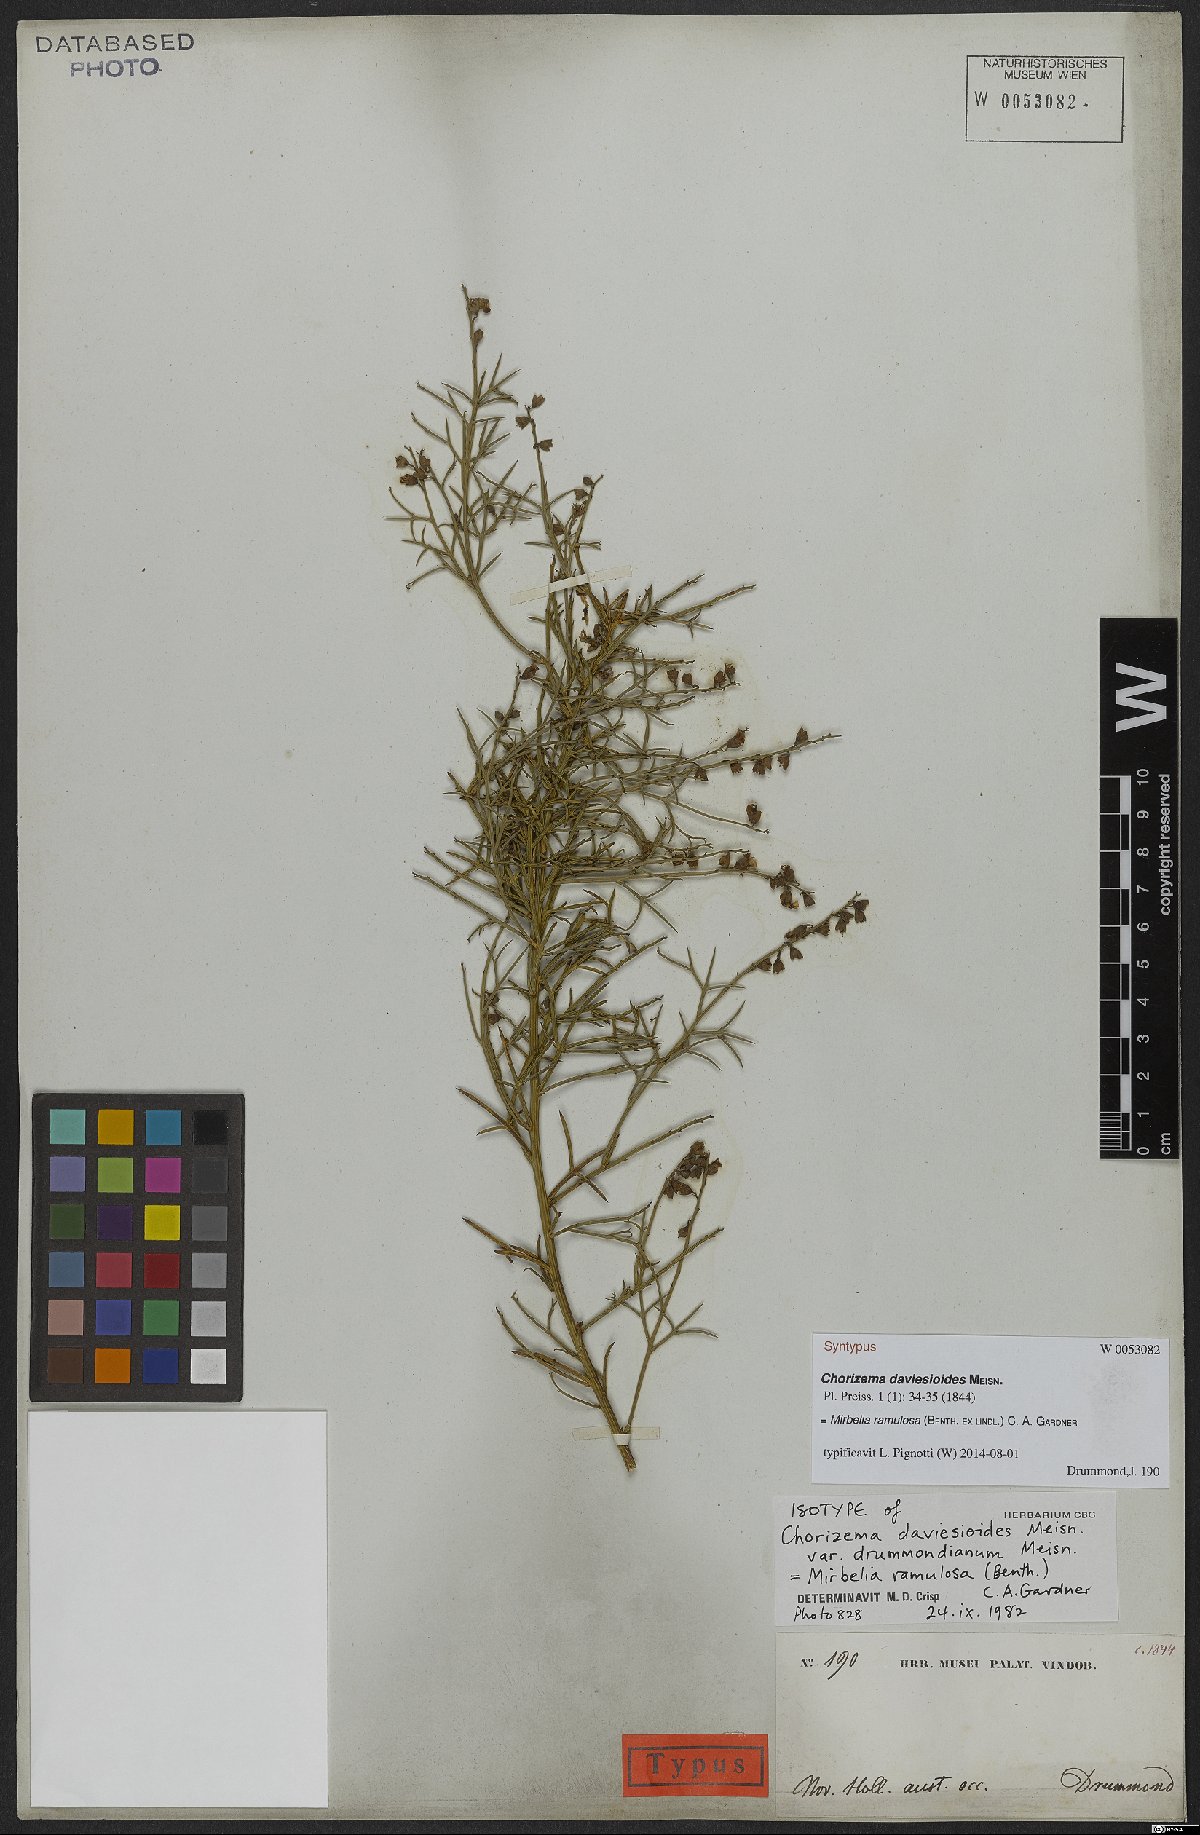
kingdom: Plantae
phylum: Tracheophyta
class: Magnoliopsida
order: Fabales
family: Fabaceae
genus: Mirbelia
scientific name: Mirbelia ramulosa
